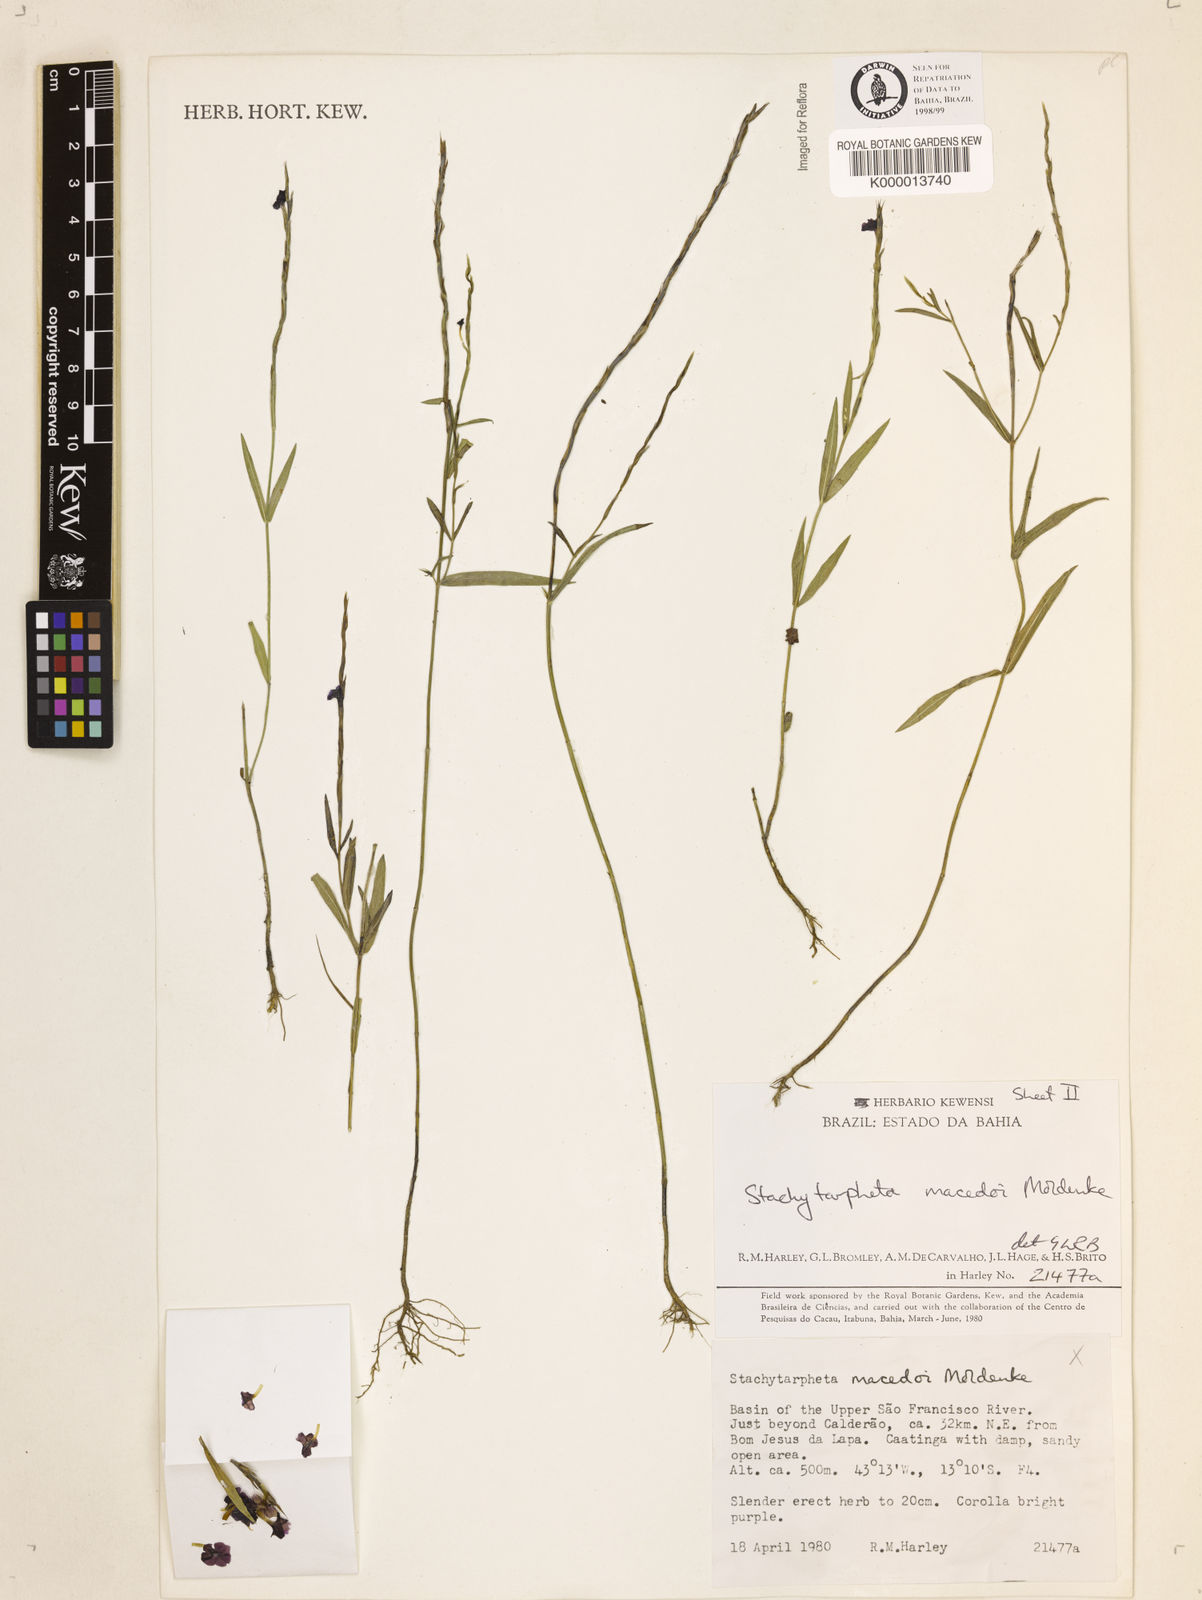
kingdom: Plantae
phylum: Tracheophyta
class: Magnoliopsida
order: Lamiales
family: Verbenaceae
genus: Stachytarpheta
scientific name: Stachytarpheta macedoi
